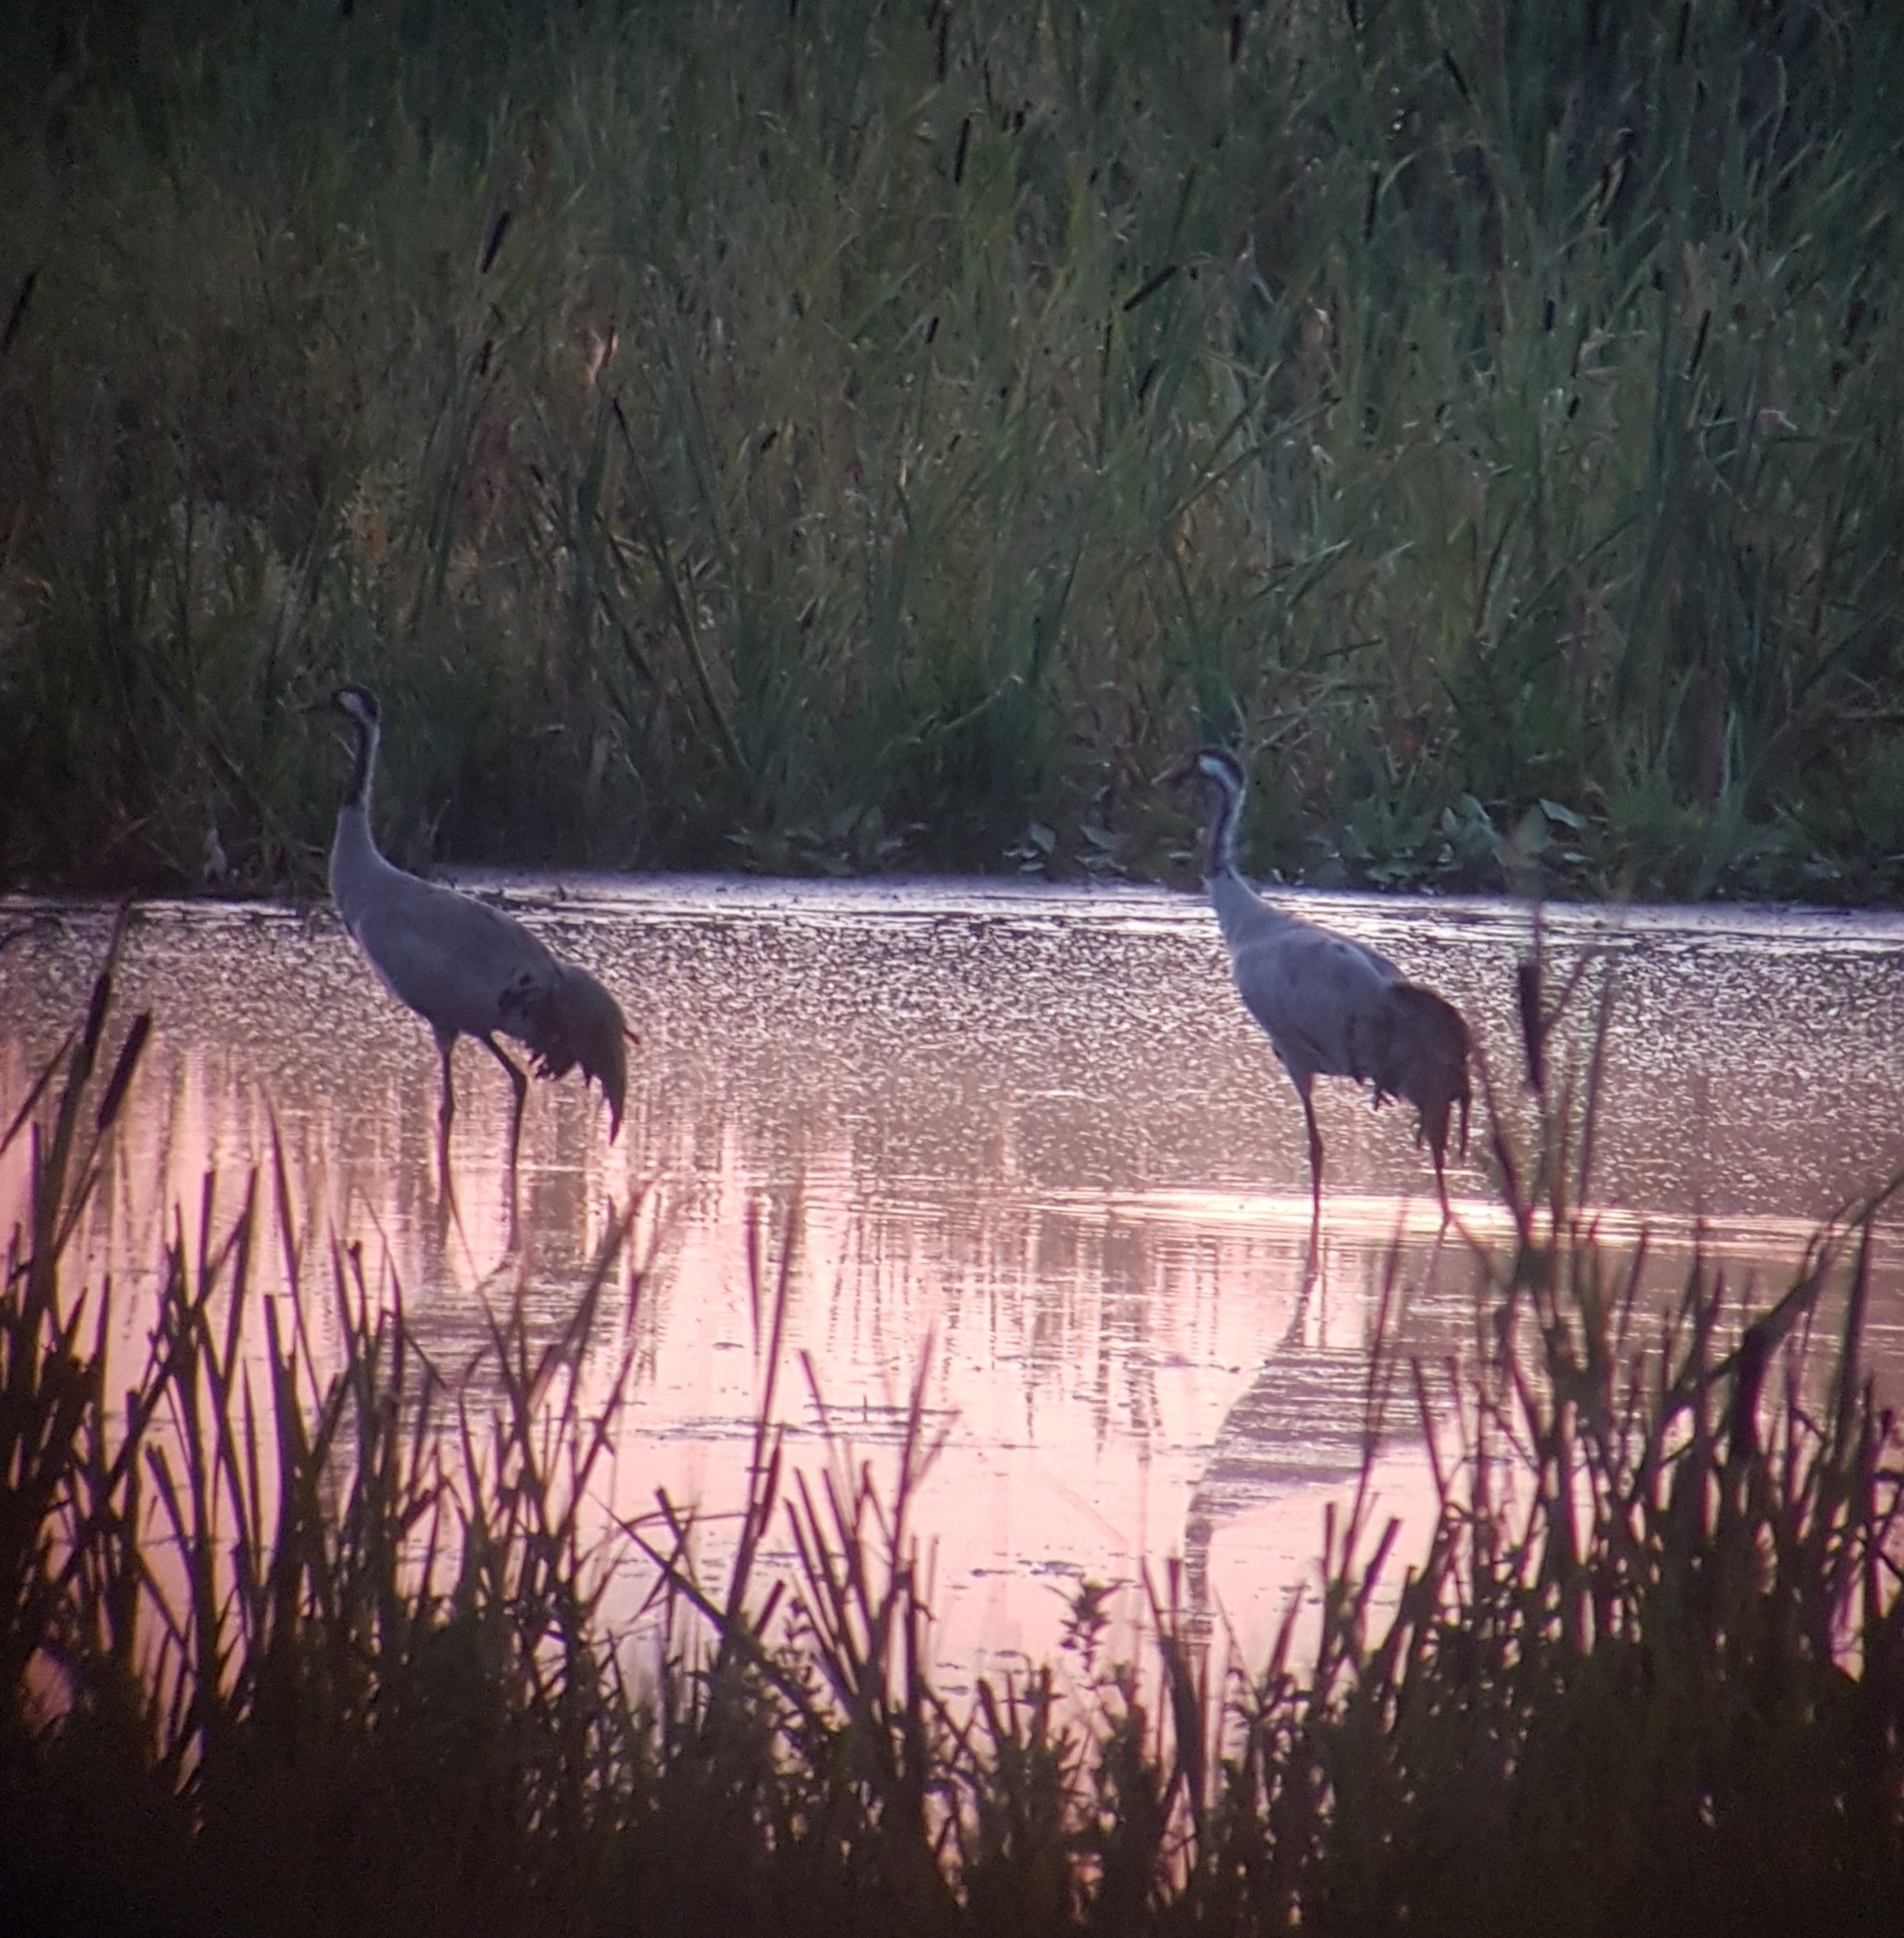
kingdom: Animalia
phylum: Chordata
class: Aves
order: Gruiformes
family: Gruidae
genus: Grus
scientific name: Grus grus
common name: Trane
